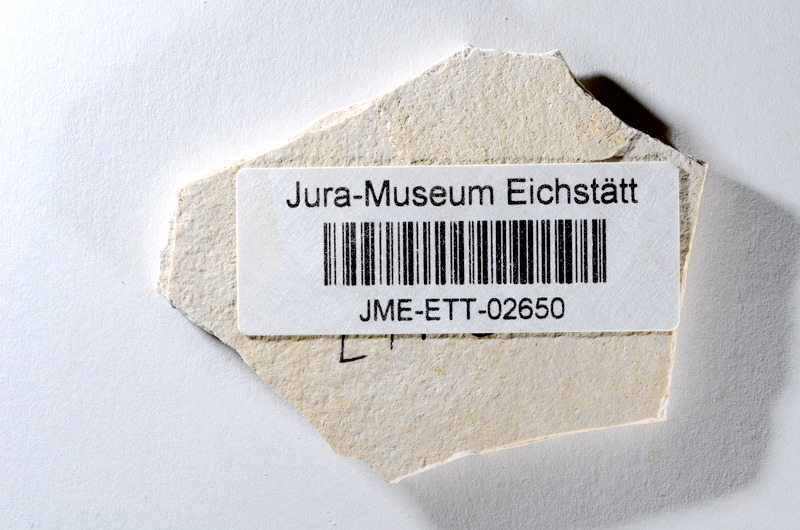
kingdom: Animalia
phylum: Chordata
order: Salmoniformes
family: Orthogonikleithridae
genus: Orthogonikleithrus
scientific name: Orthogonikleithrus hoelli
